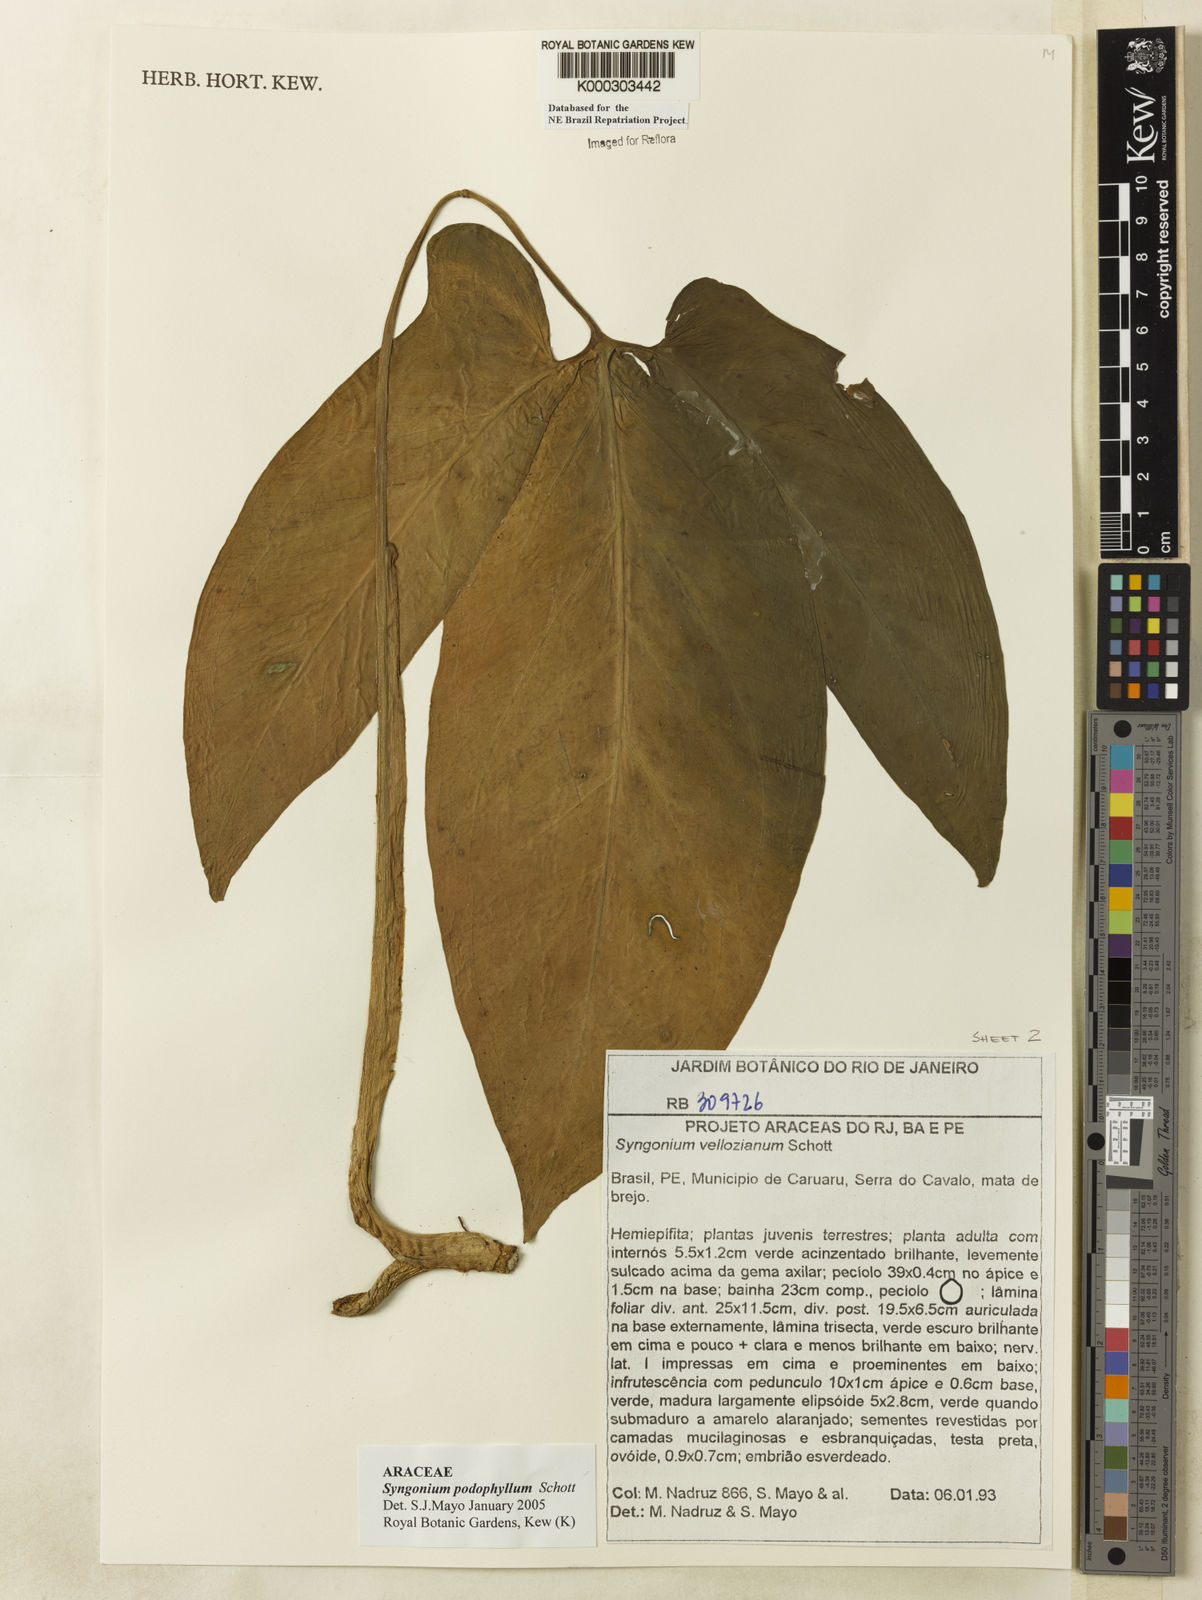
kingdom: Plantae
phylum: Tracheophyta
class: Liliopsida
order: Alismatales
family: Araceae
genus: Syngonium
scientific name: Syngonium podophyllum
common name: American evergreen
